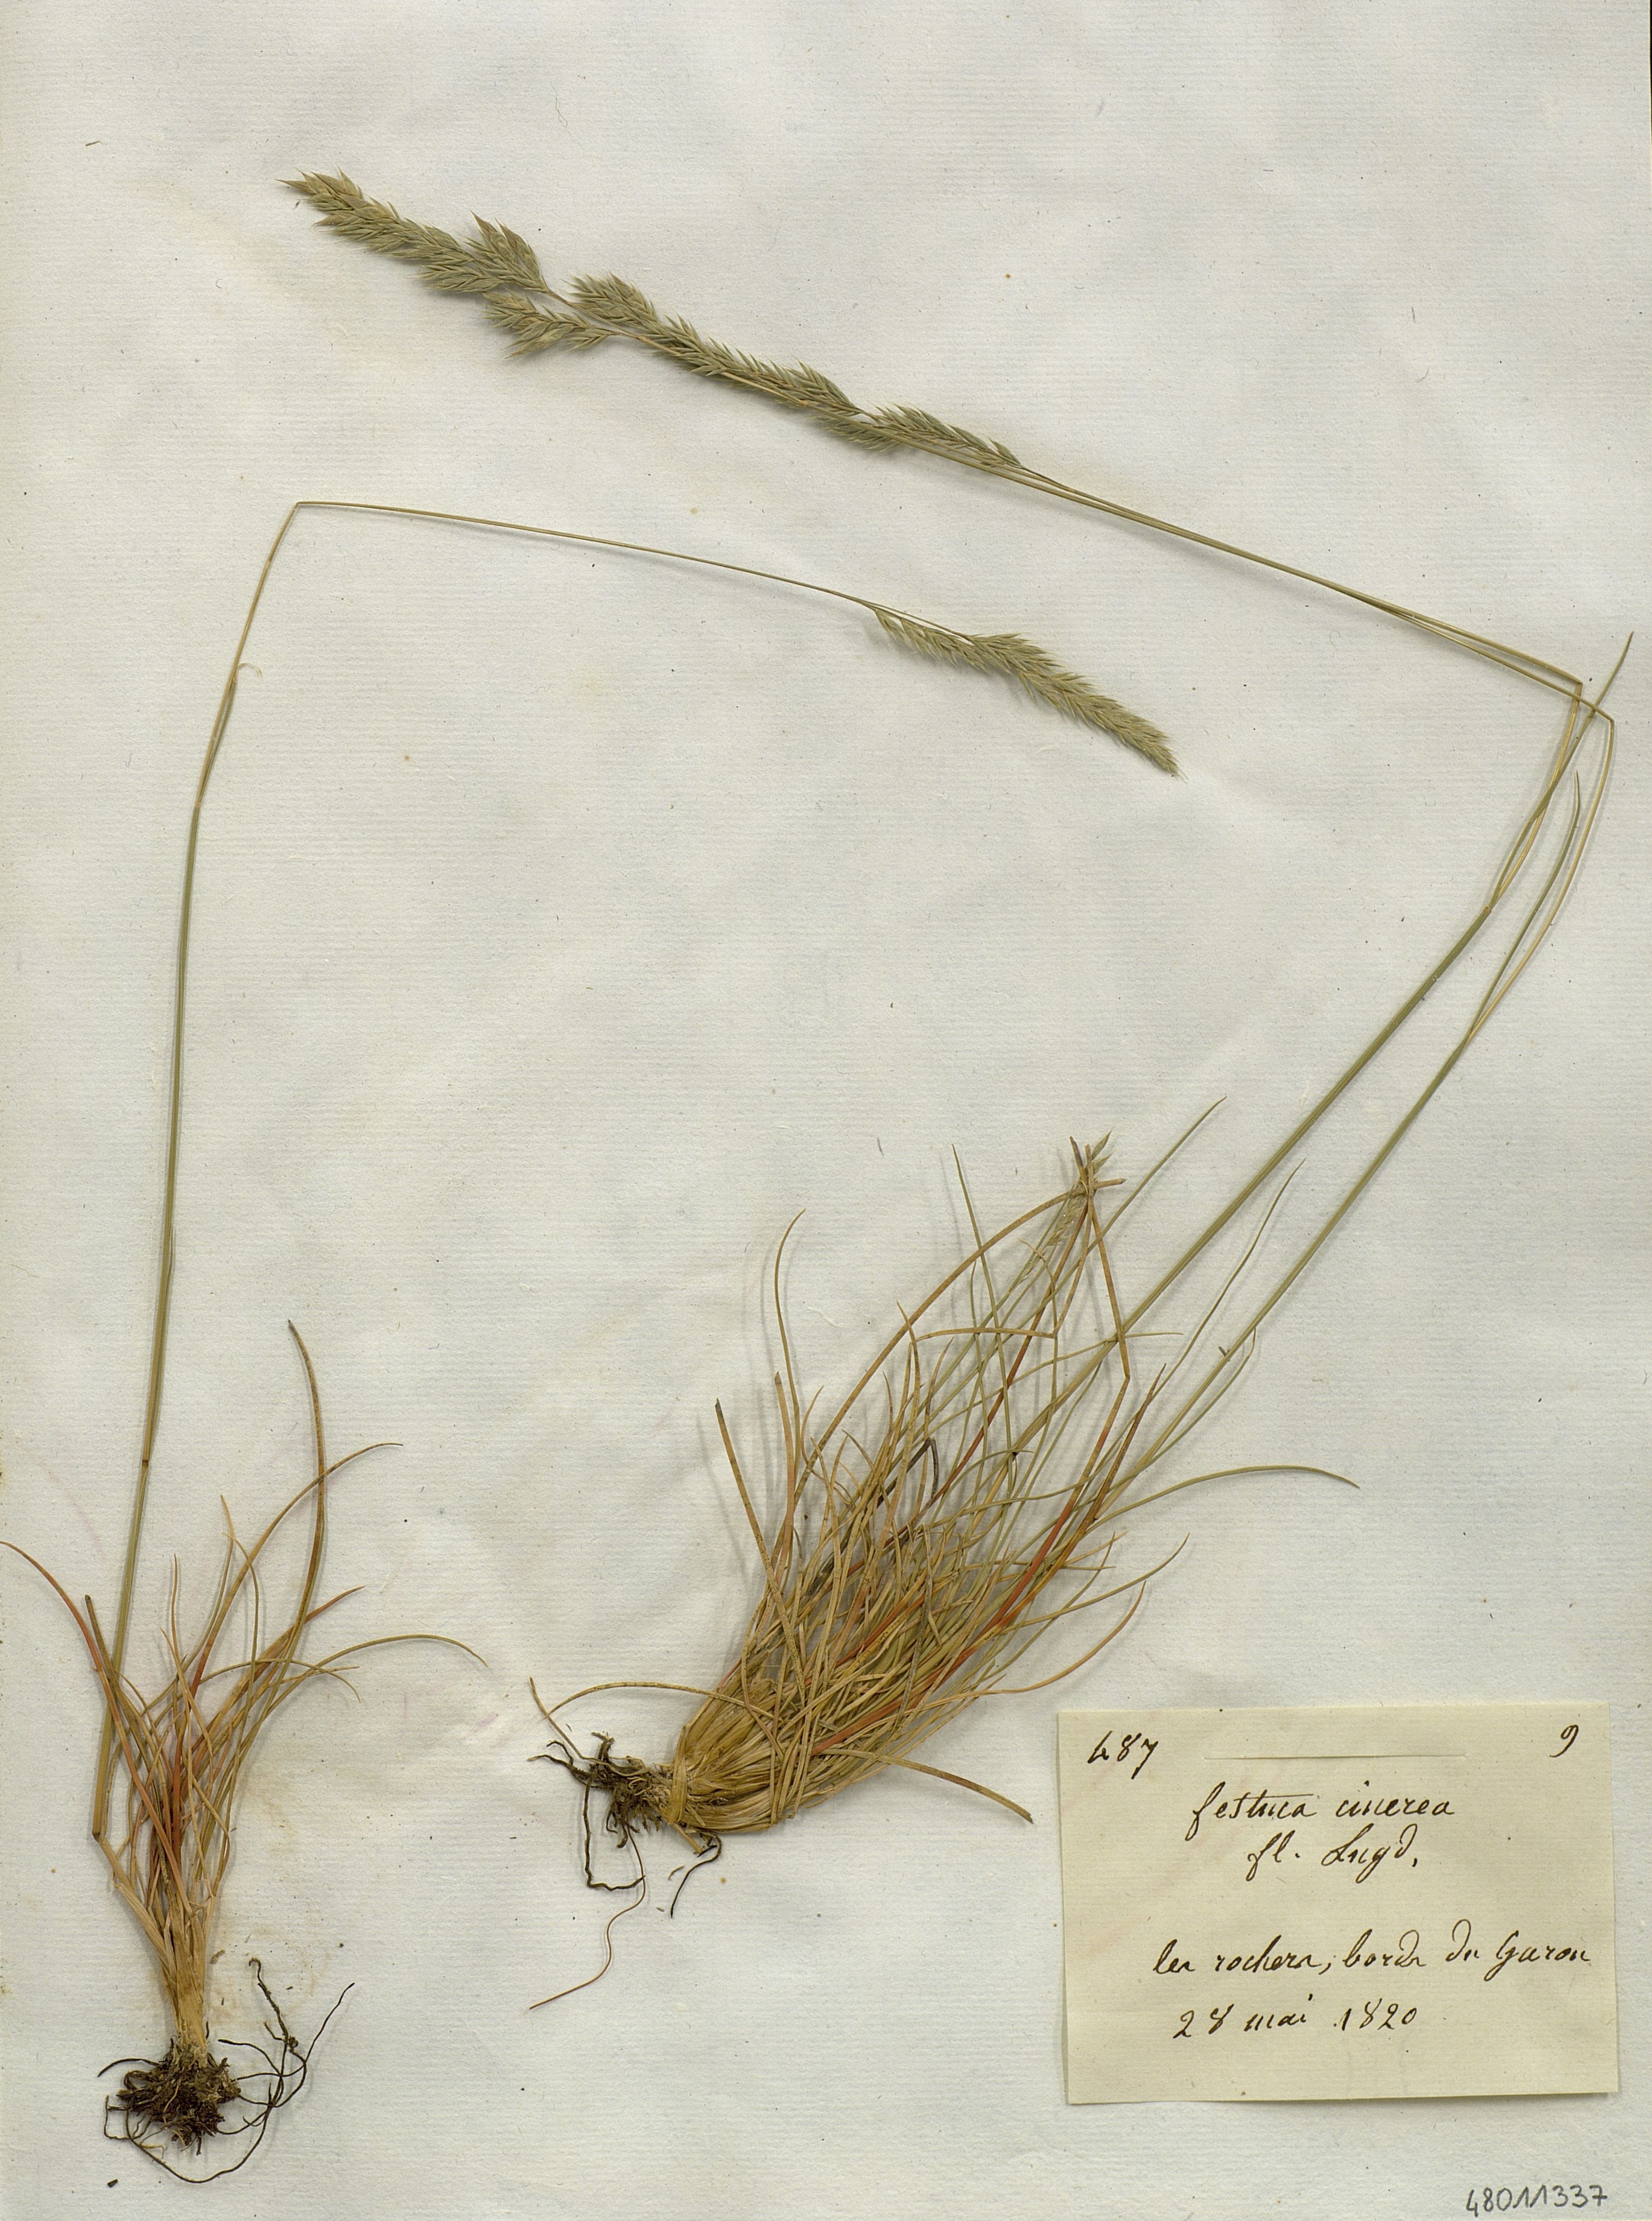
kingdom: Plantae
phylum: Tracheophyta
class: Liliopsida
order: Poales
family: Poaceae
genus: Festuca
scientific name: Festuca cinerea
